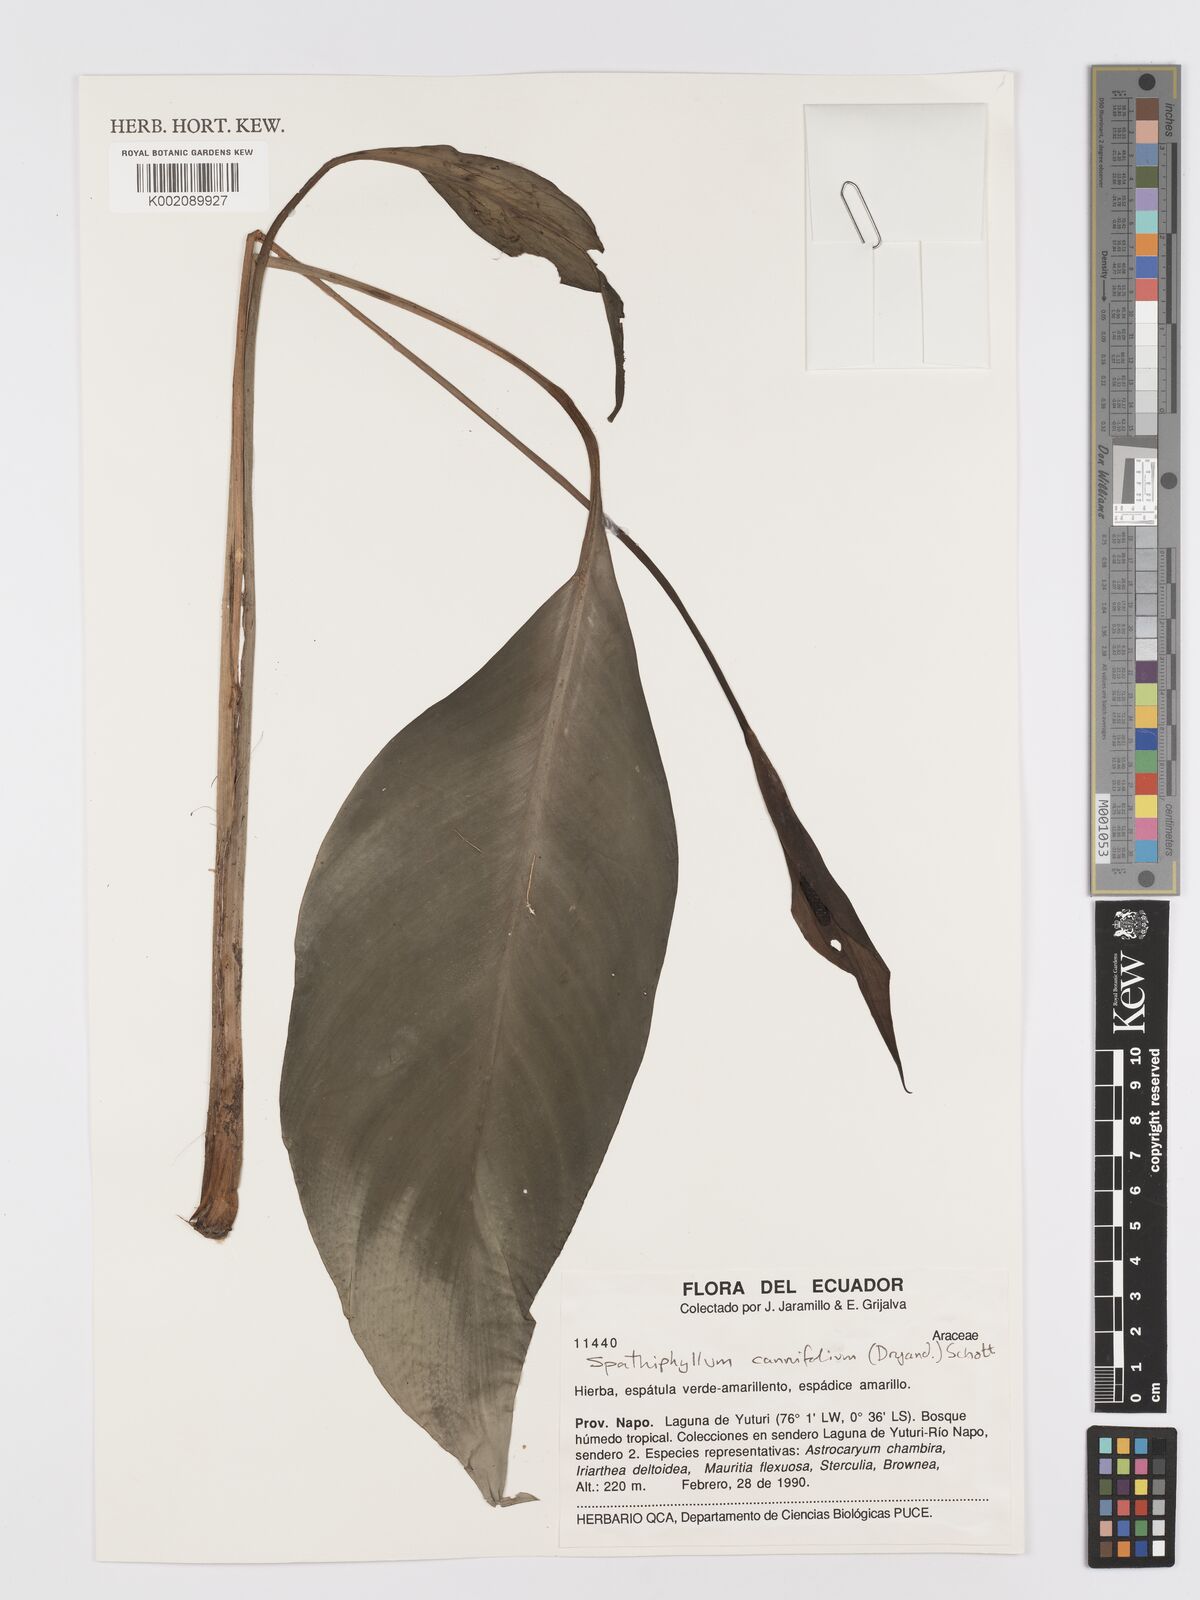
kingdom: Plantae
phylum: Tracheophyta
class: Liliopsida
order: Alismatales
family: Araceae
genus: Spathiphyllum
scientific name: Spathiphyllum cannifolium
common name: Spatheflower
